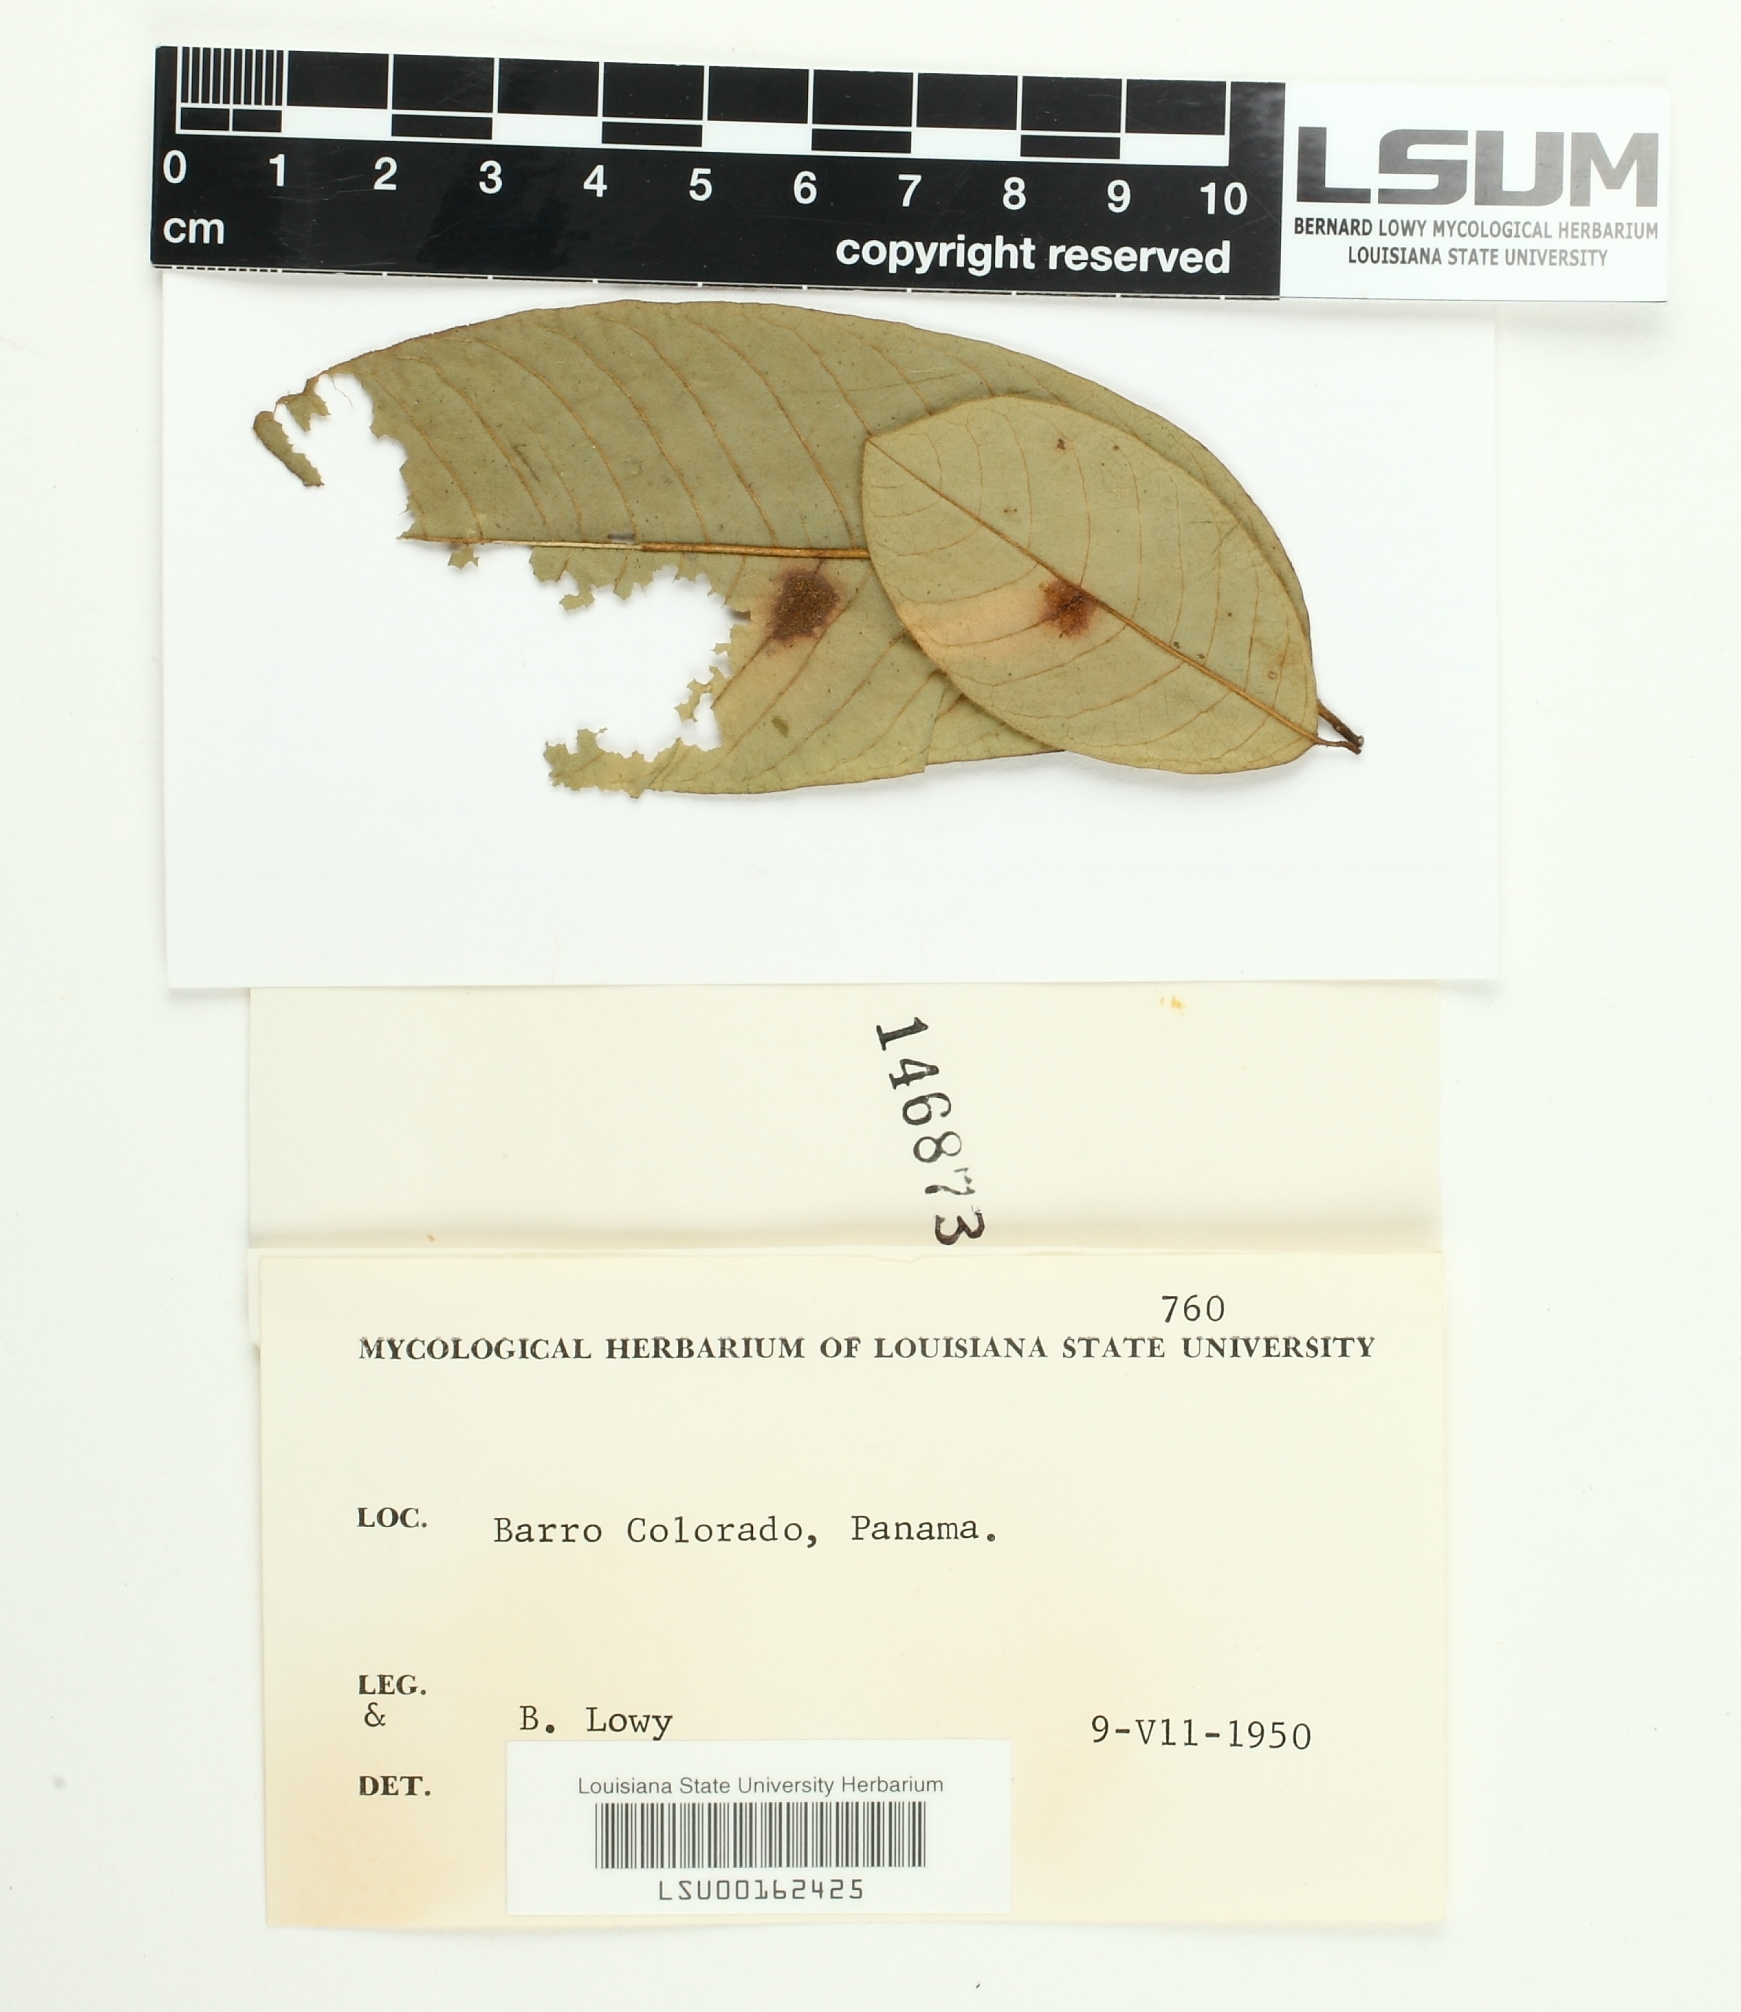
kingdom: Fungi
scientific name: Fungi
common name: Fungi
